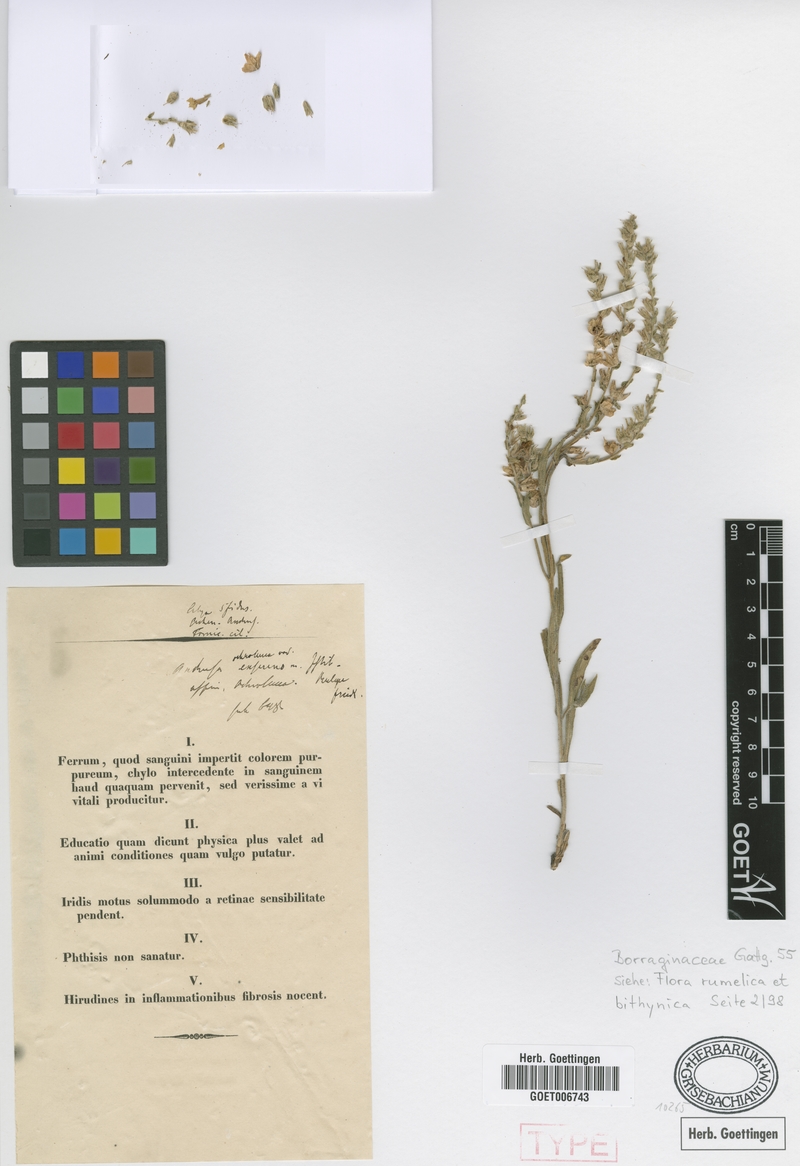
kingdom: Plantae
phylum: Tracheophyta
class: Magnoliopsida
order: Boraginales
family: Boraginaceae
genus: Anchusa
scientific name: Anchusa ochroleuca
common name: Yellow alkanet
